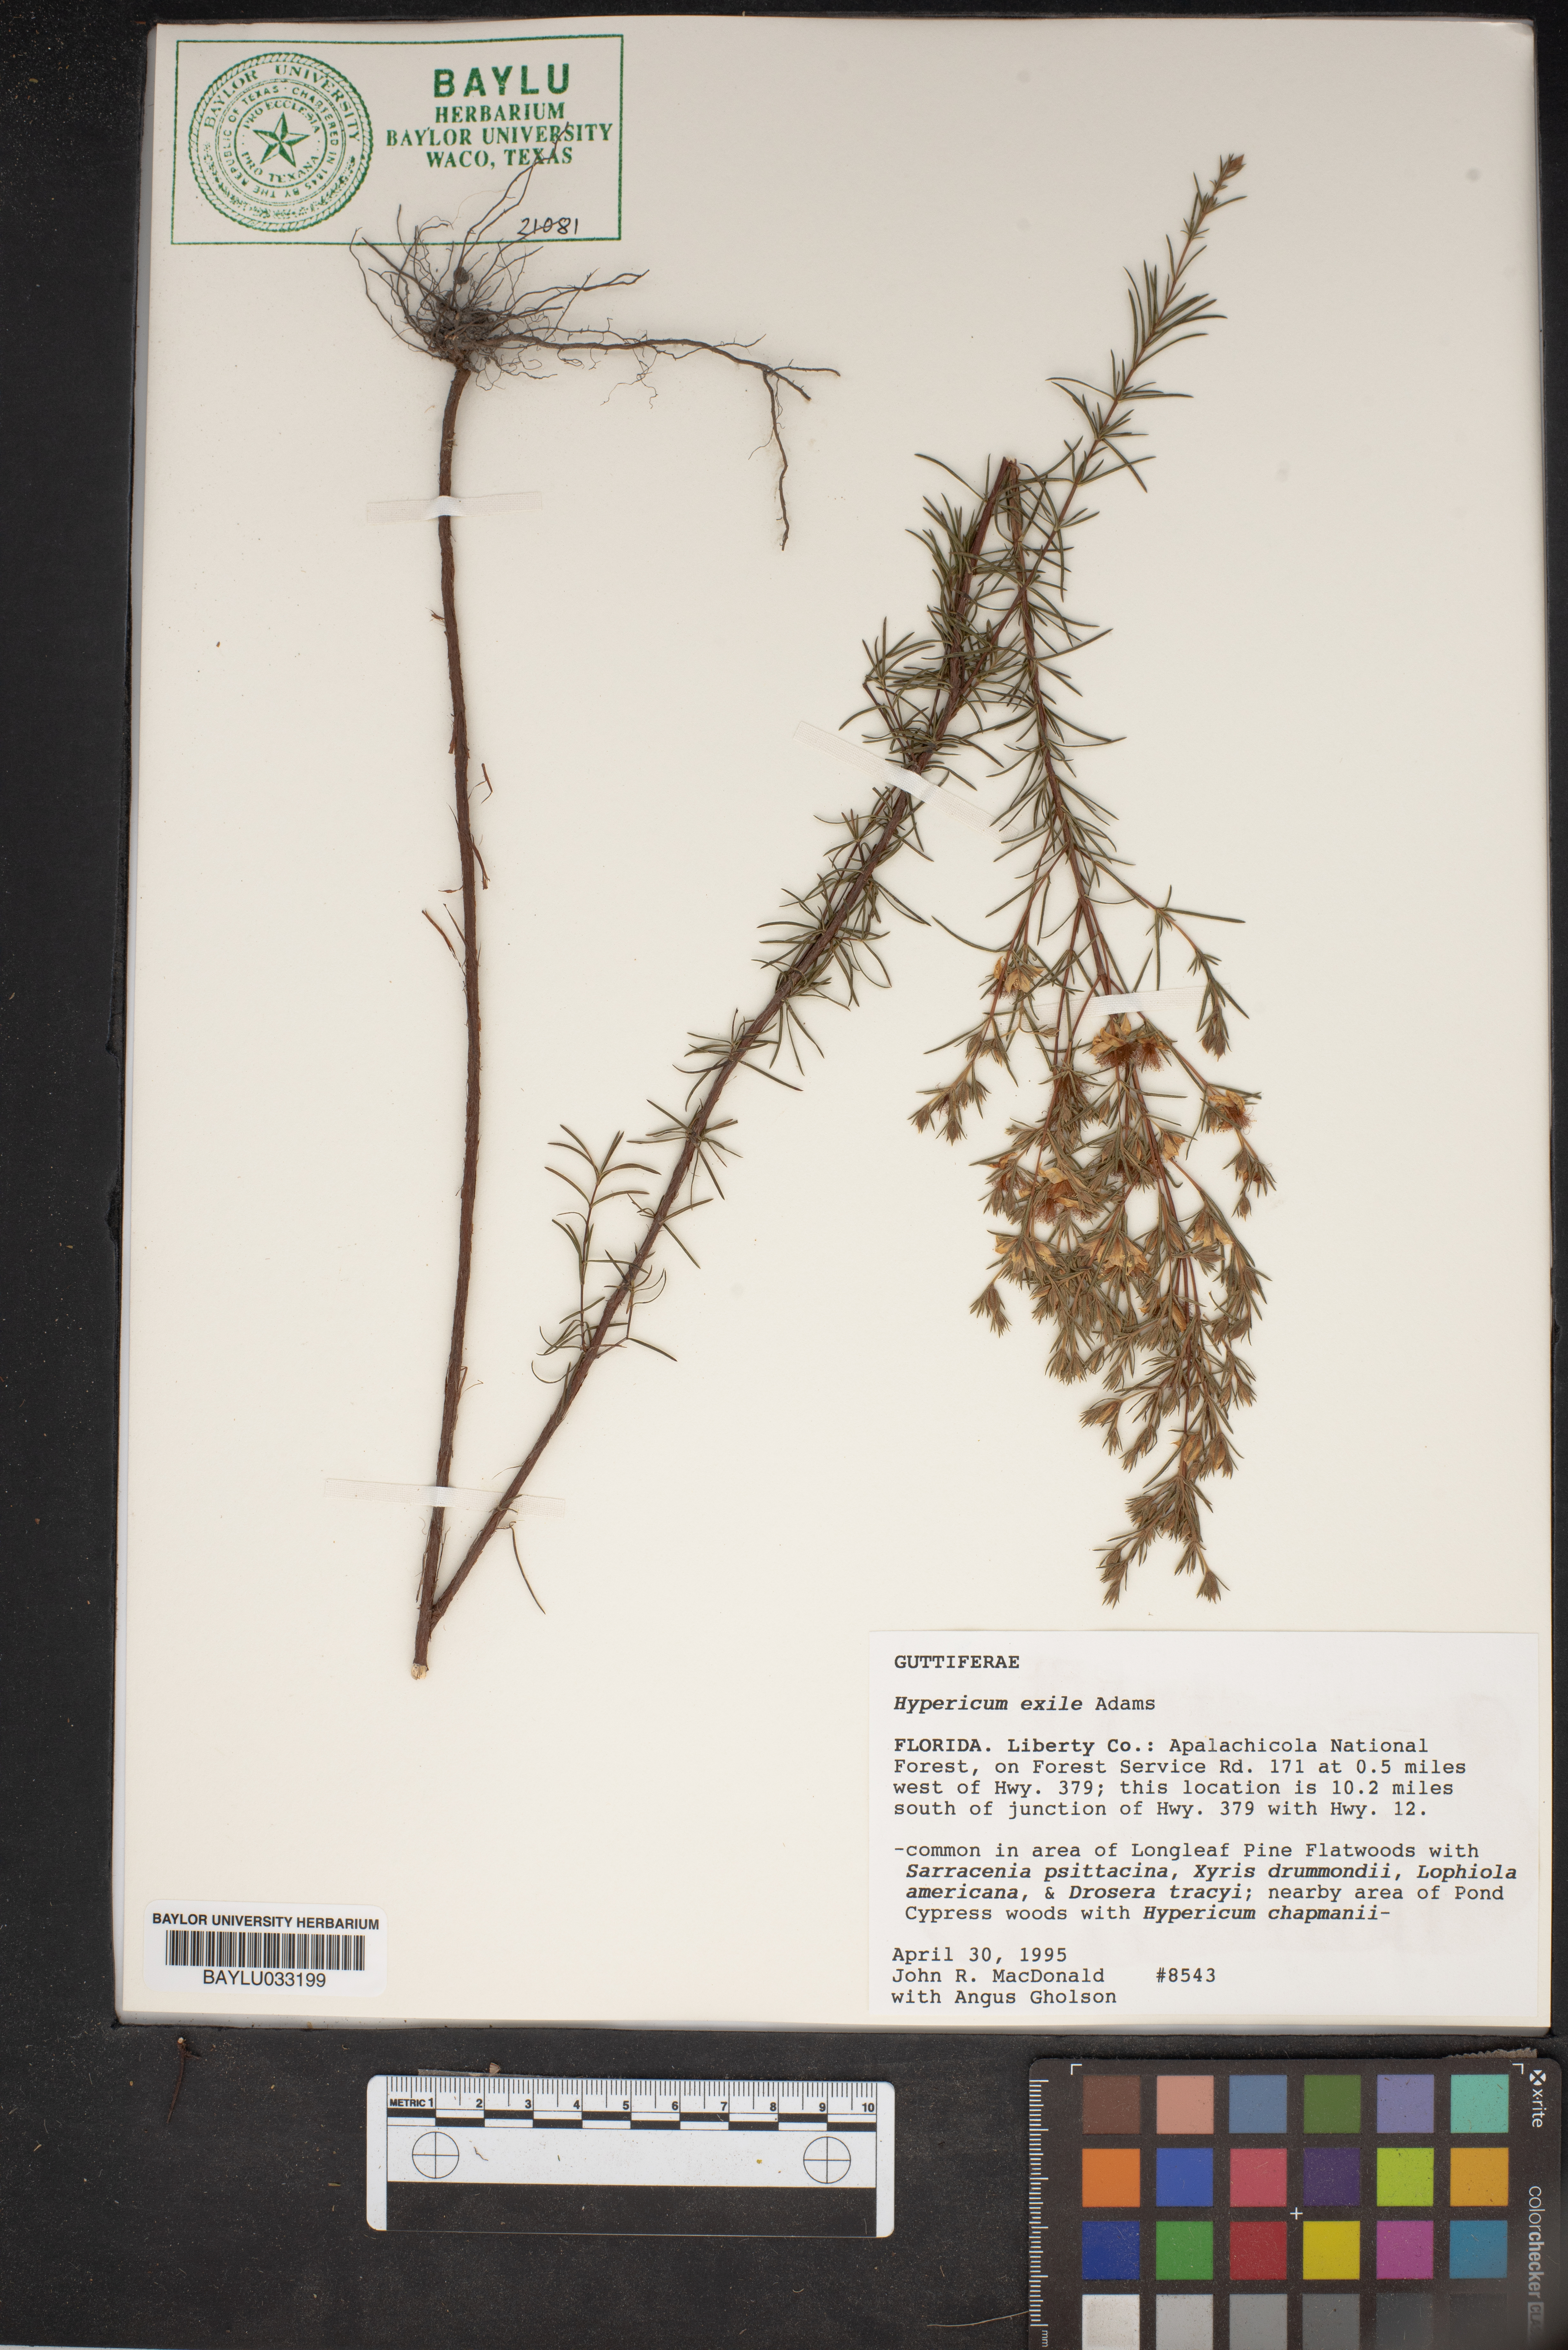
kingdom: Plantae
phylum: Tracheophyta
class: Magnoliopsida
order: Malpighiales
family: Hypericaceae
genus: Hypericum
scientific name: Hypericum nitidum
